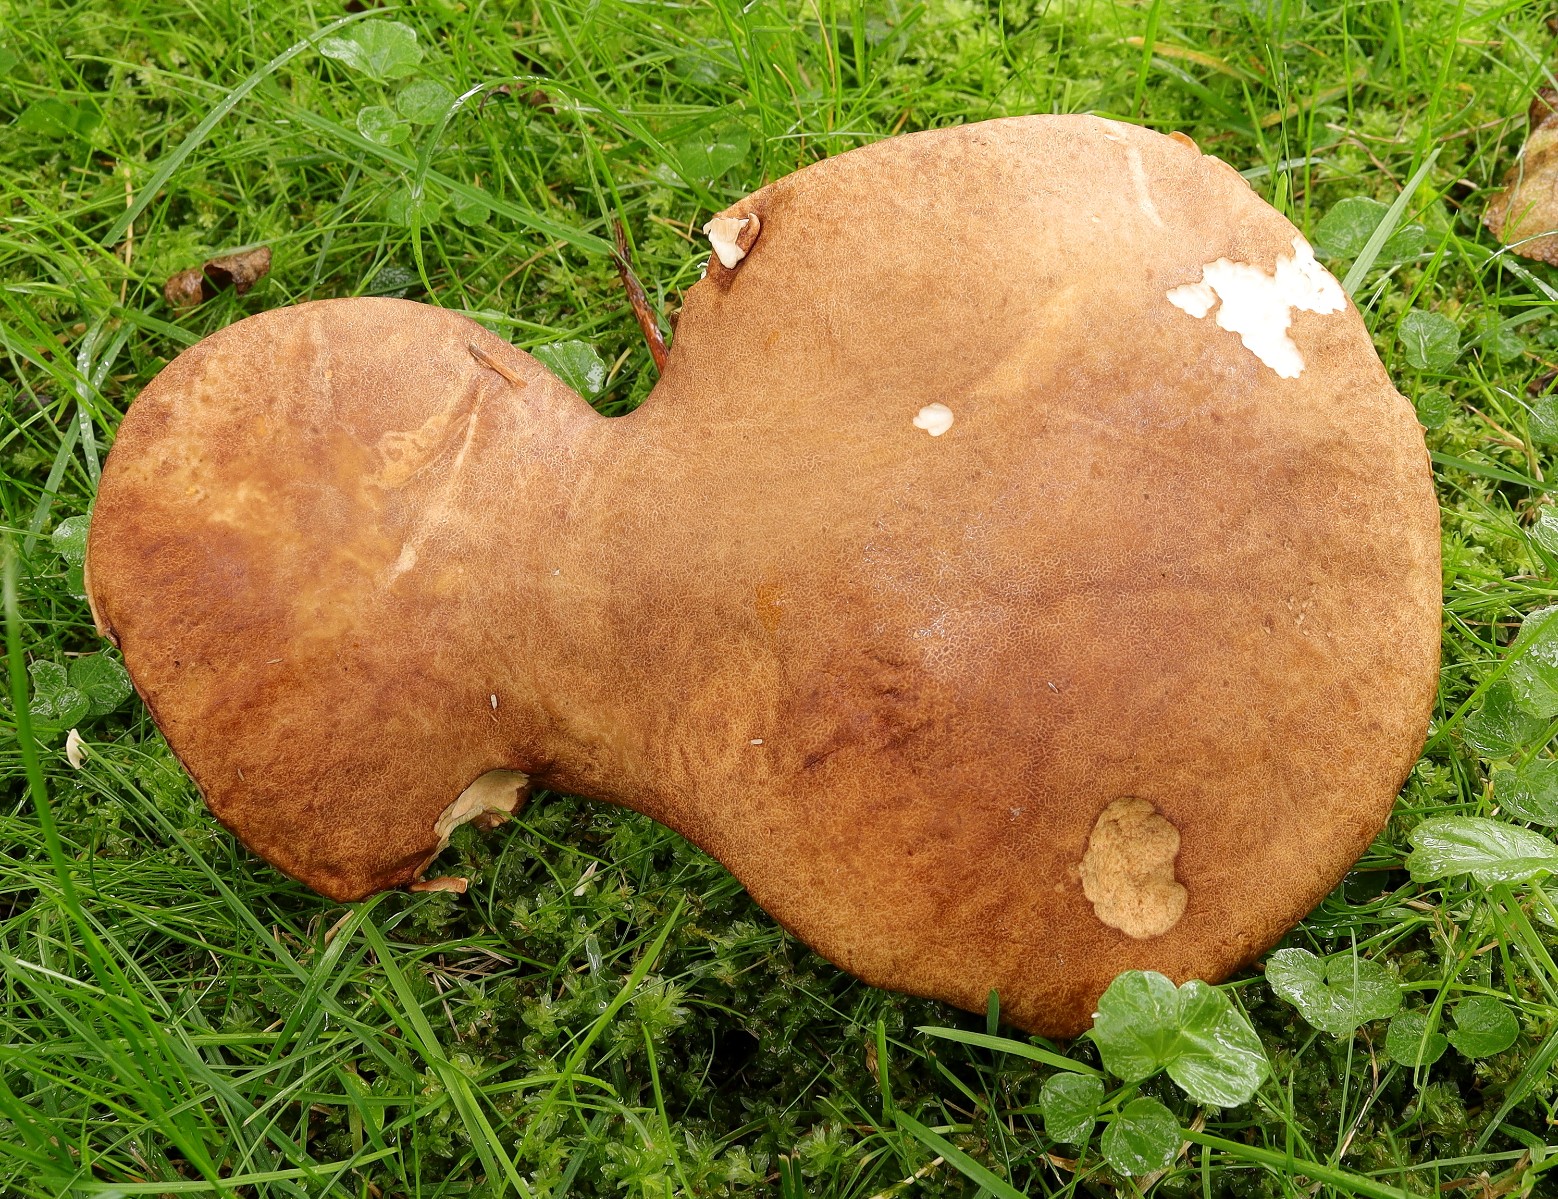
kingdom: Fungi
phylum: Basidiomycota
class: Agaricomycetes
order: Boletales
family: Boletaceae
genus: Boletus
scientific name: Boletus reticulatus
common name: sommer-rørhat
